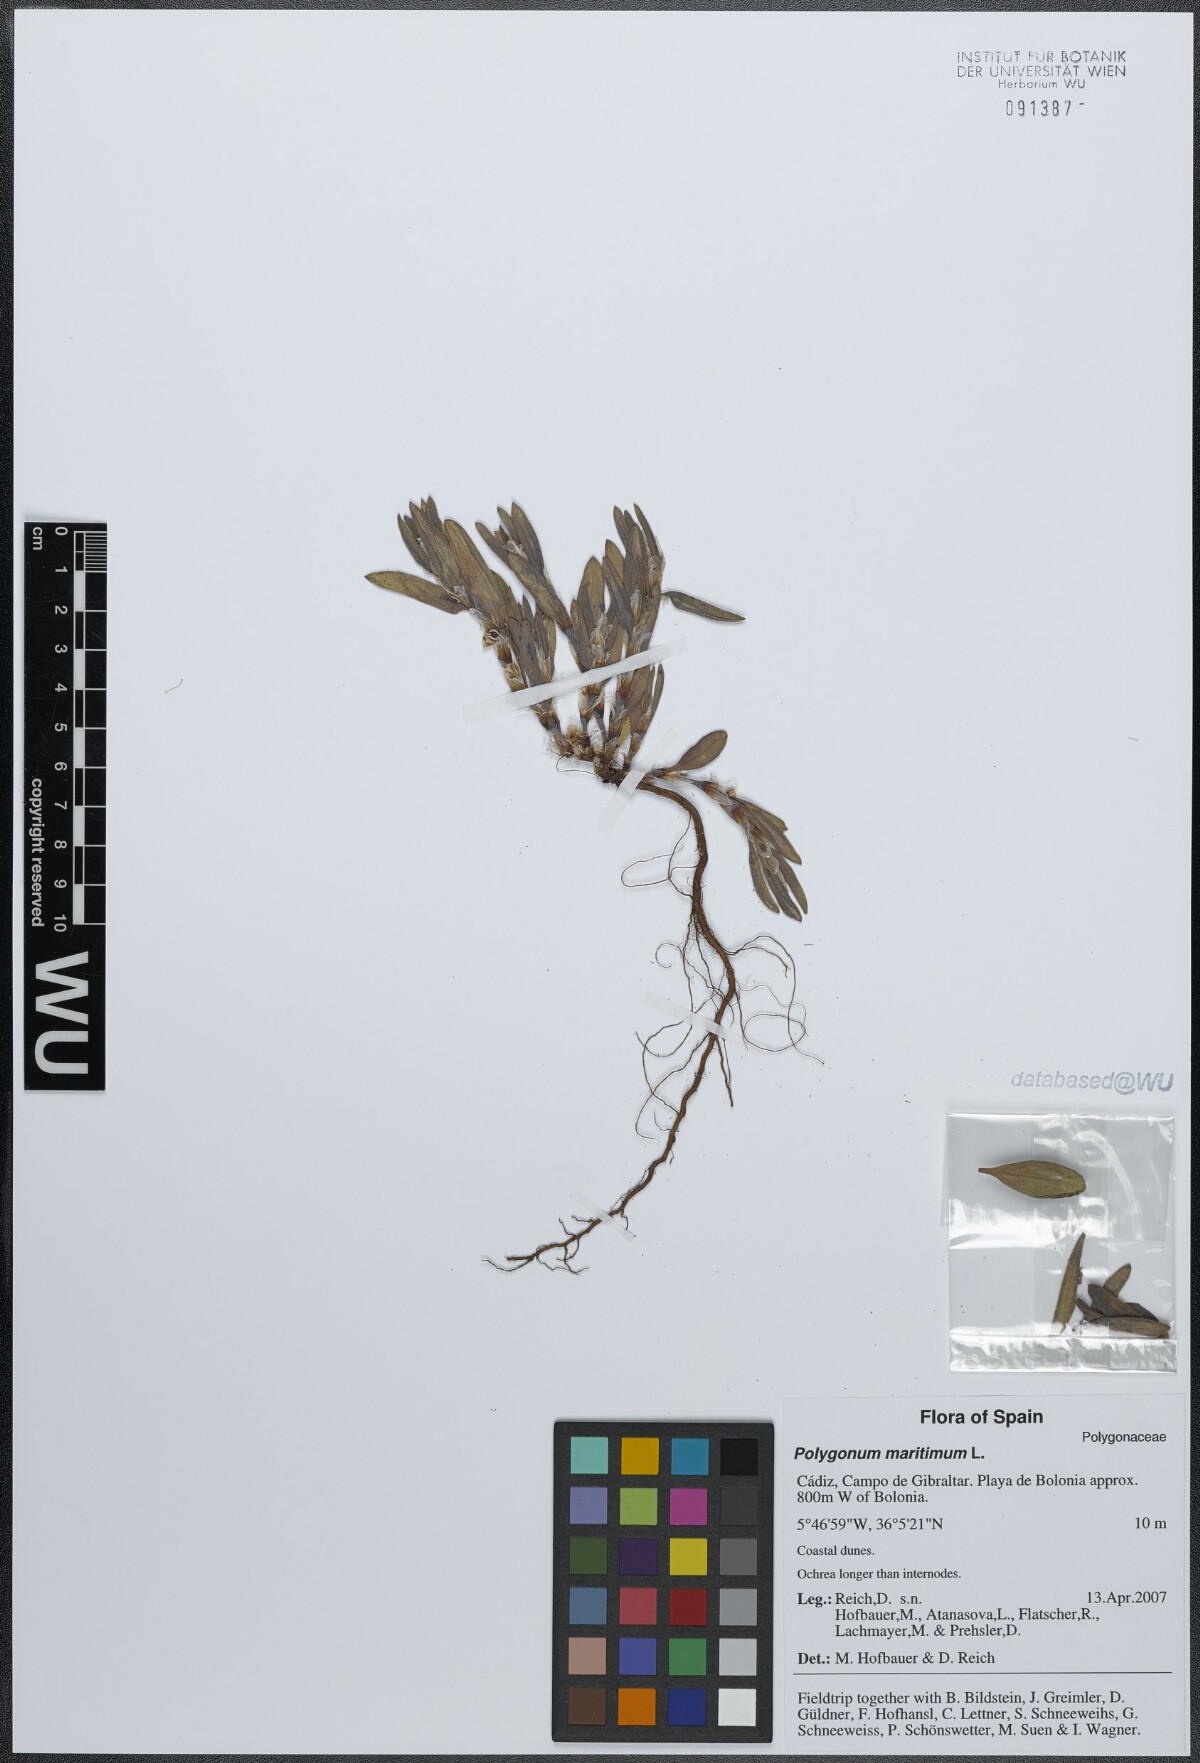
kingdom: Plantae
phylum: Tracheophyta
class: Magnoliopsida
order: Caryophyllales
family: Polygonaceae
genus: Polygonum
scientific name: Polygonum maritimum
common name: Sea knotgrass
